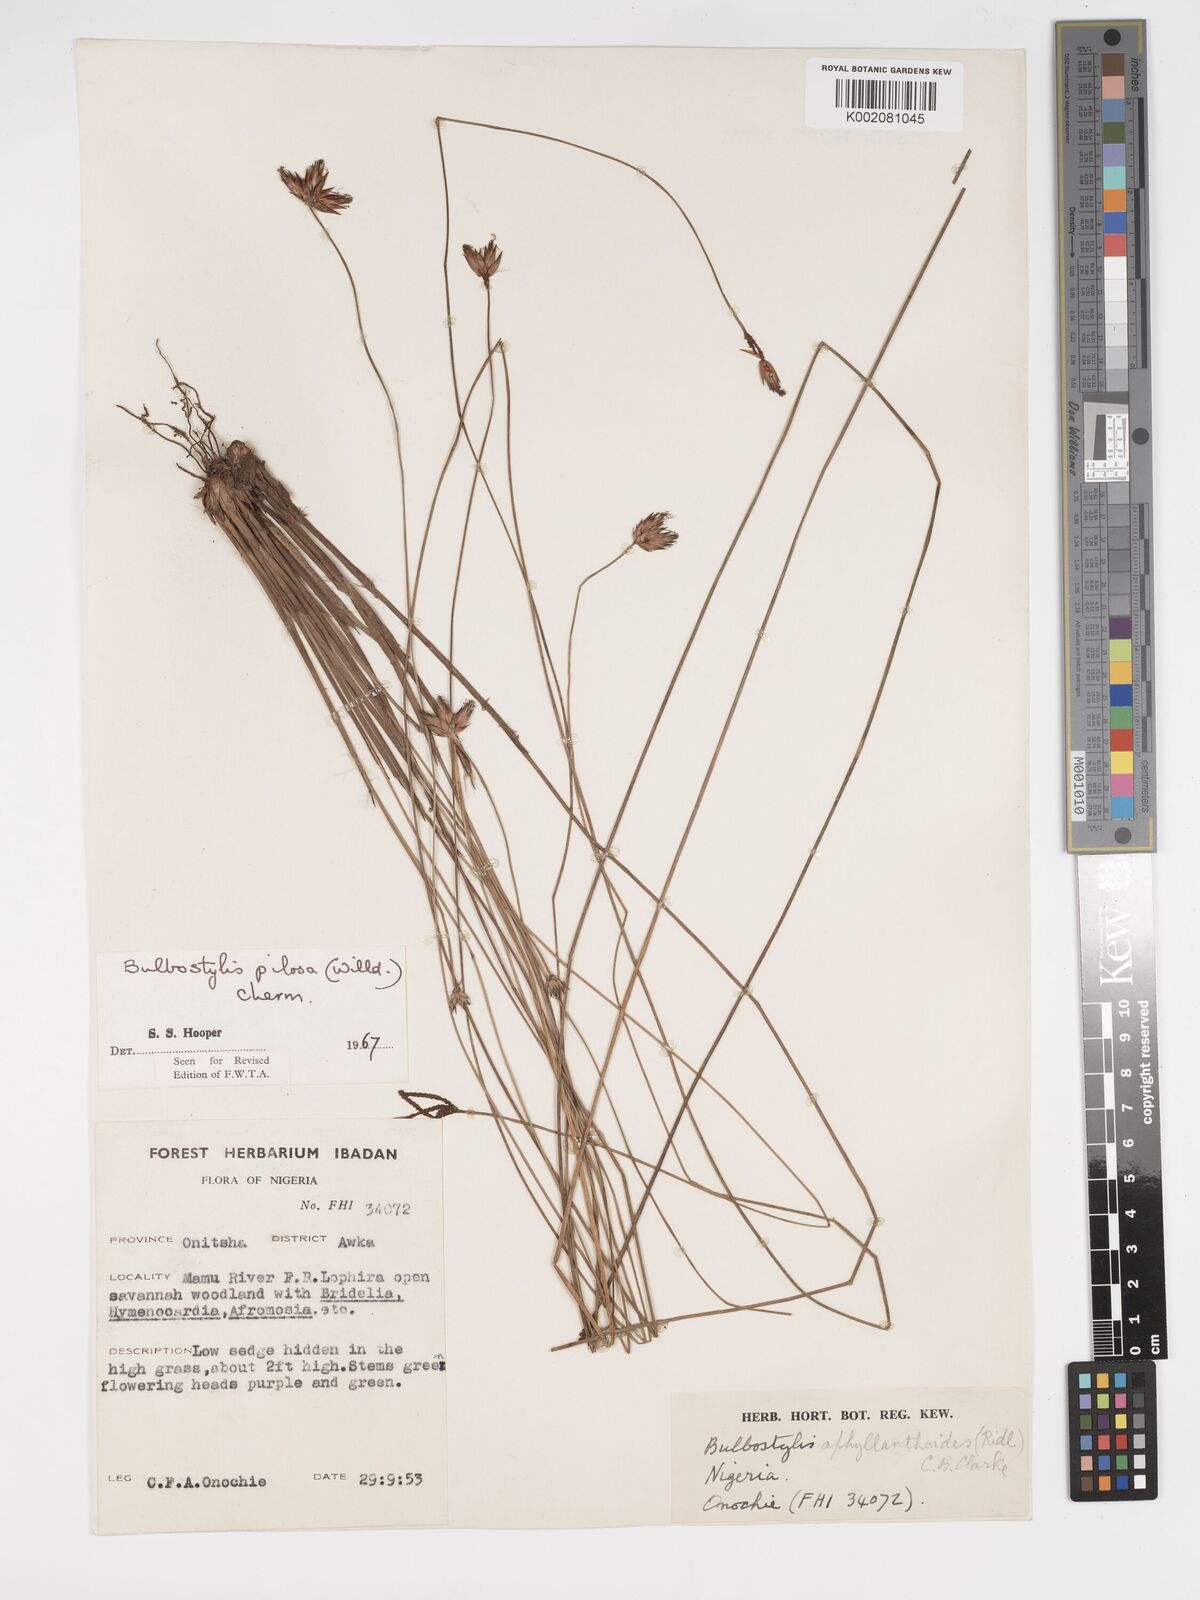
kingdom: Plantae
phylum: Tracheophyta
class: Liliopsida
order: Poales
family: Cyperaceae
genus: Bulbostylis
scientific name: Bulbostylis pilosa
